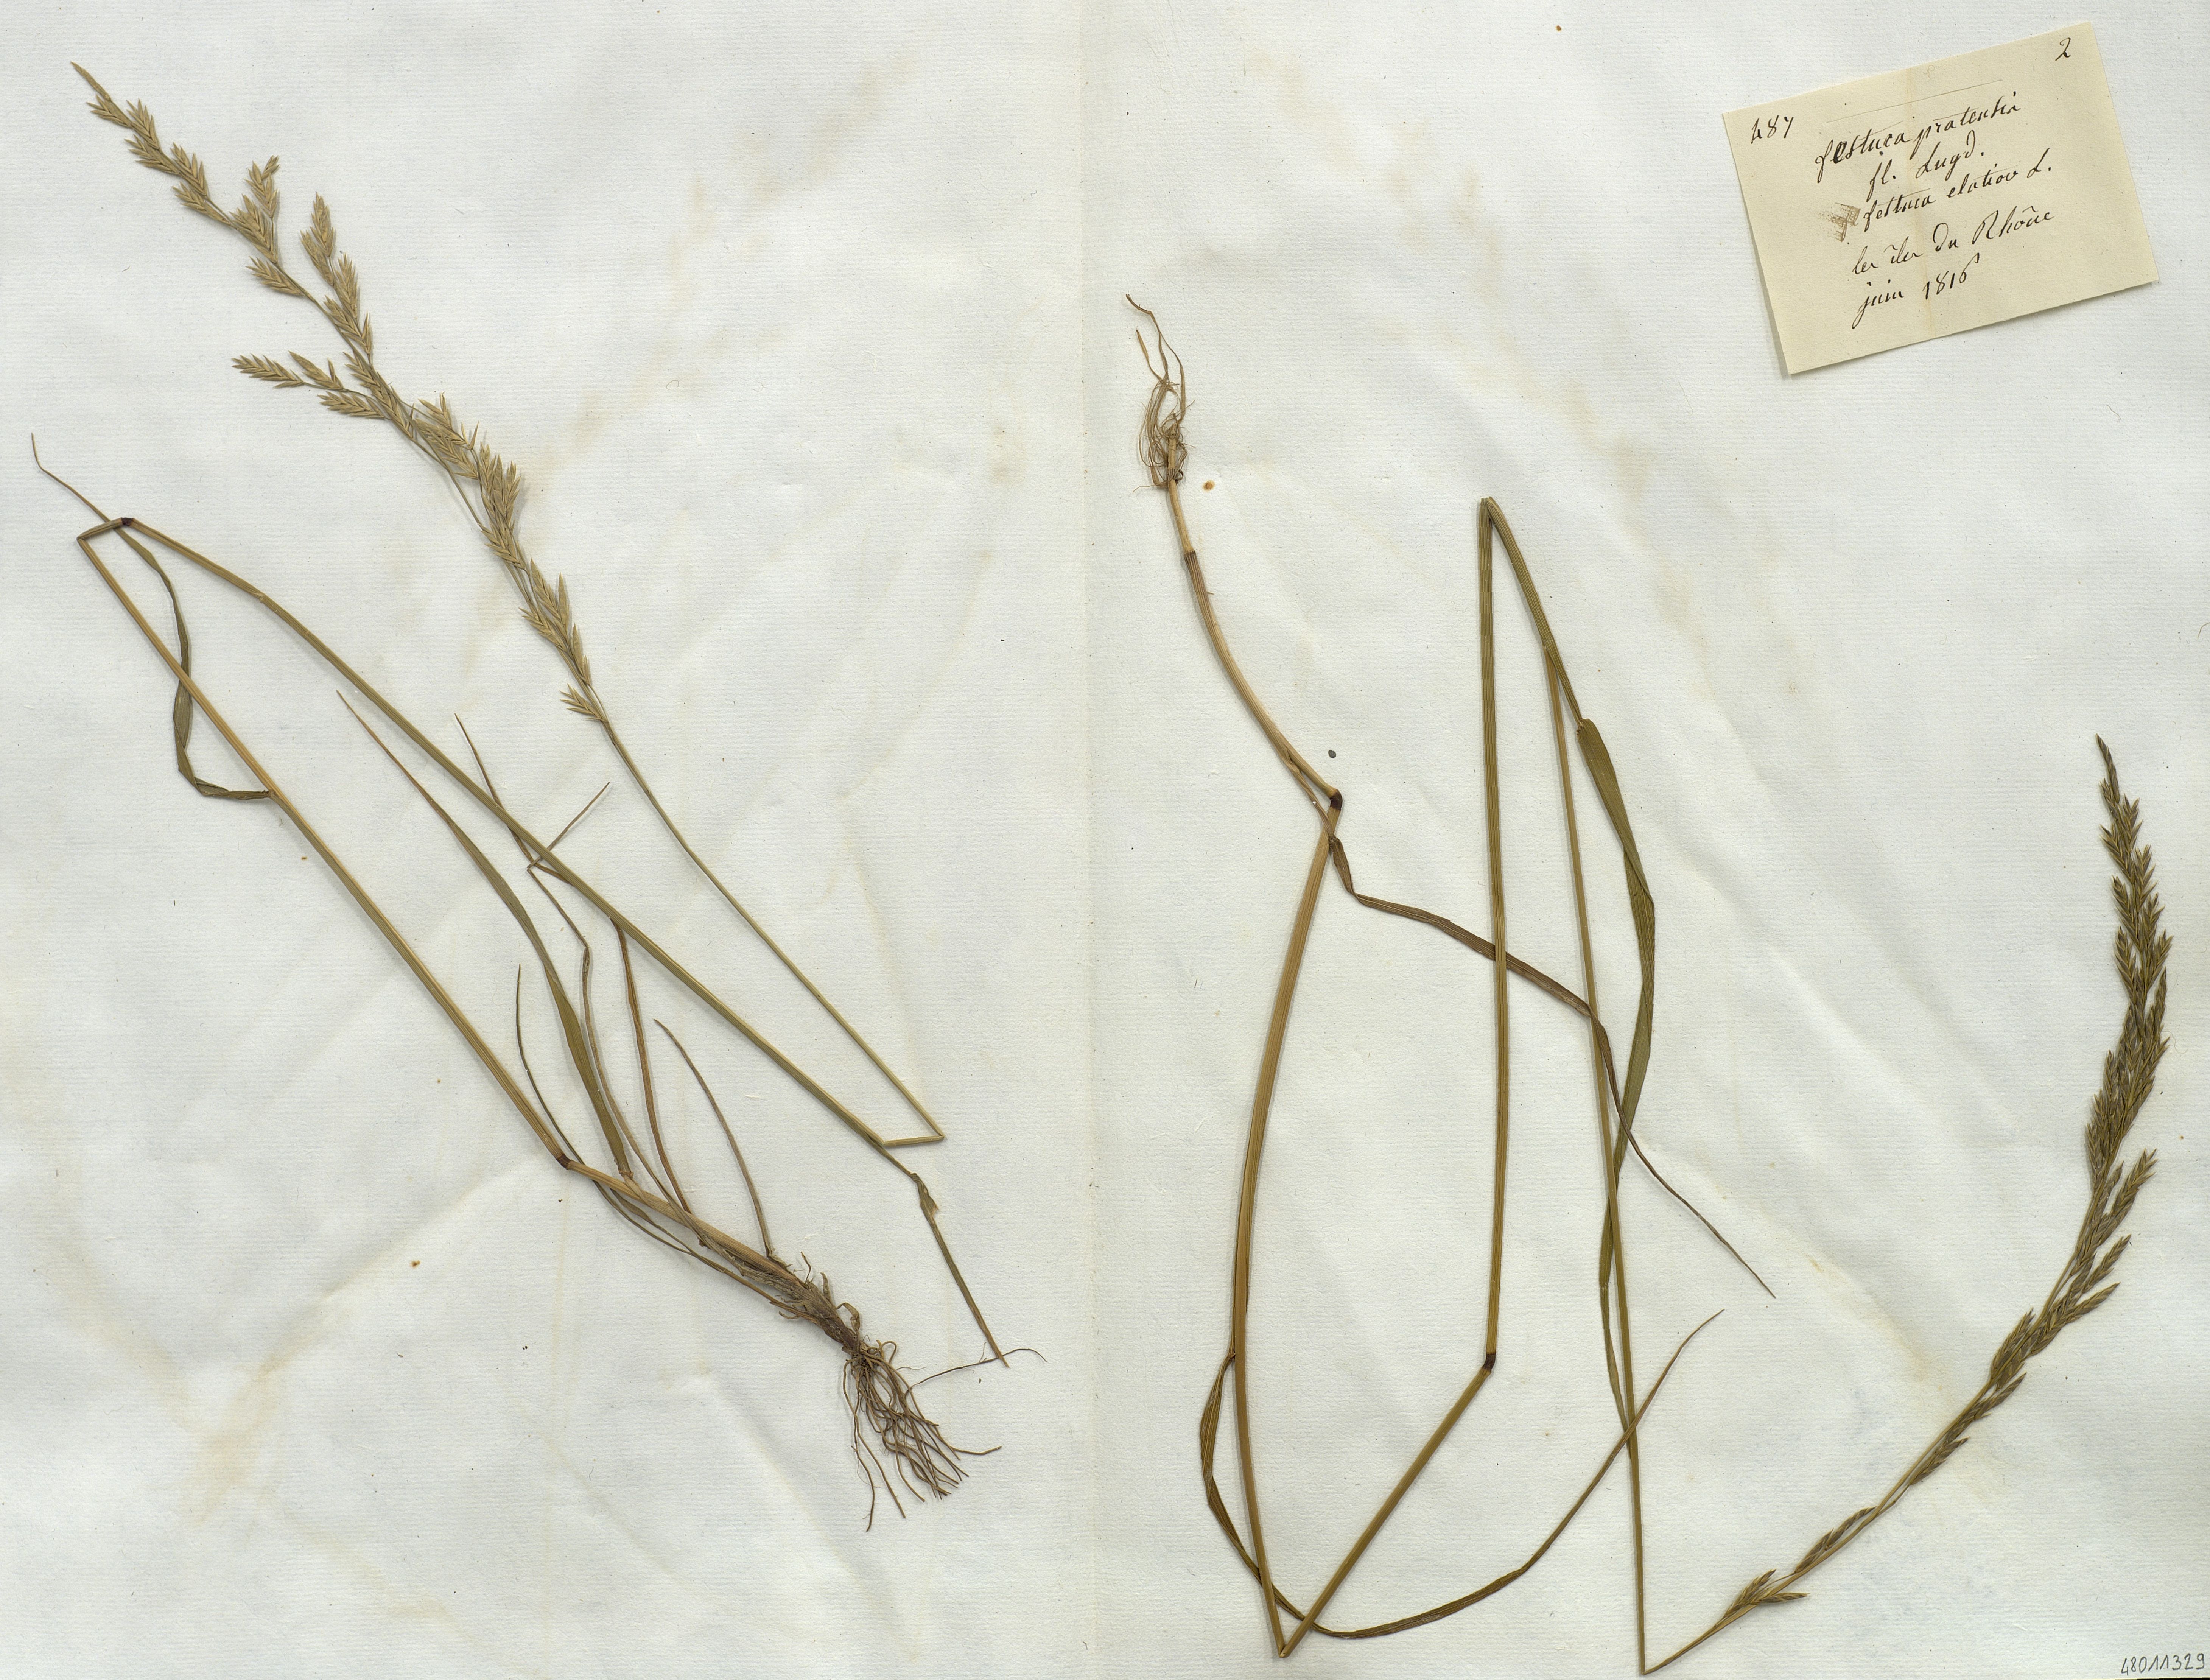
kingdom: Plantae
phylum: Tracheophyta
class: Liliopsida
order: Poales
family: Poaceae
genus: Festuca
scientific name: Festuca
